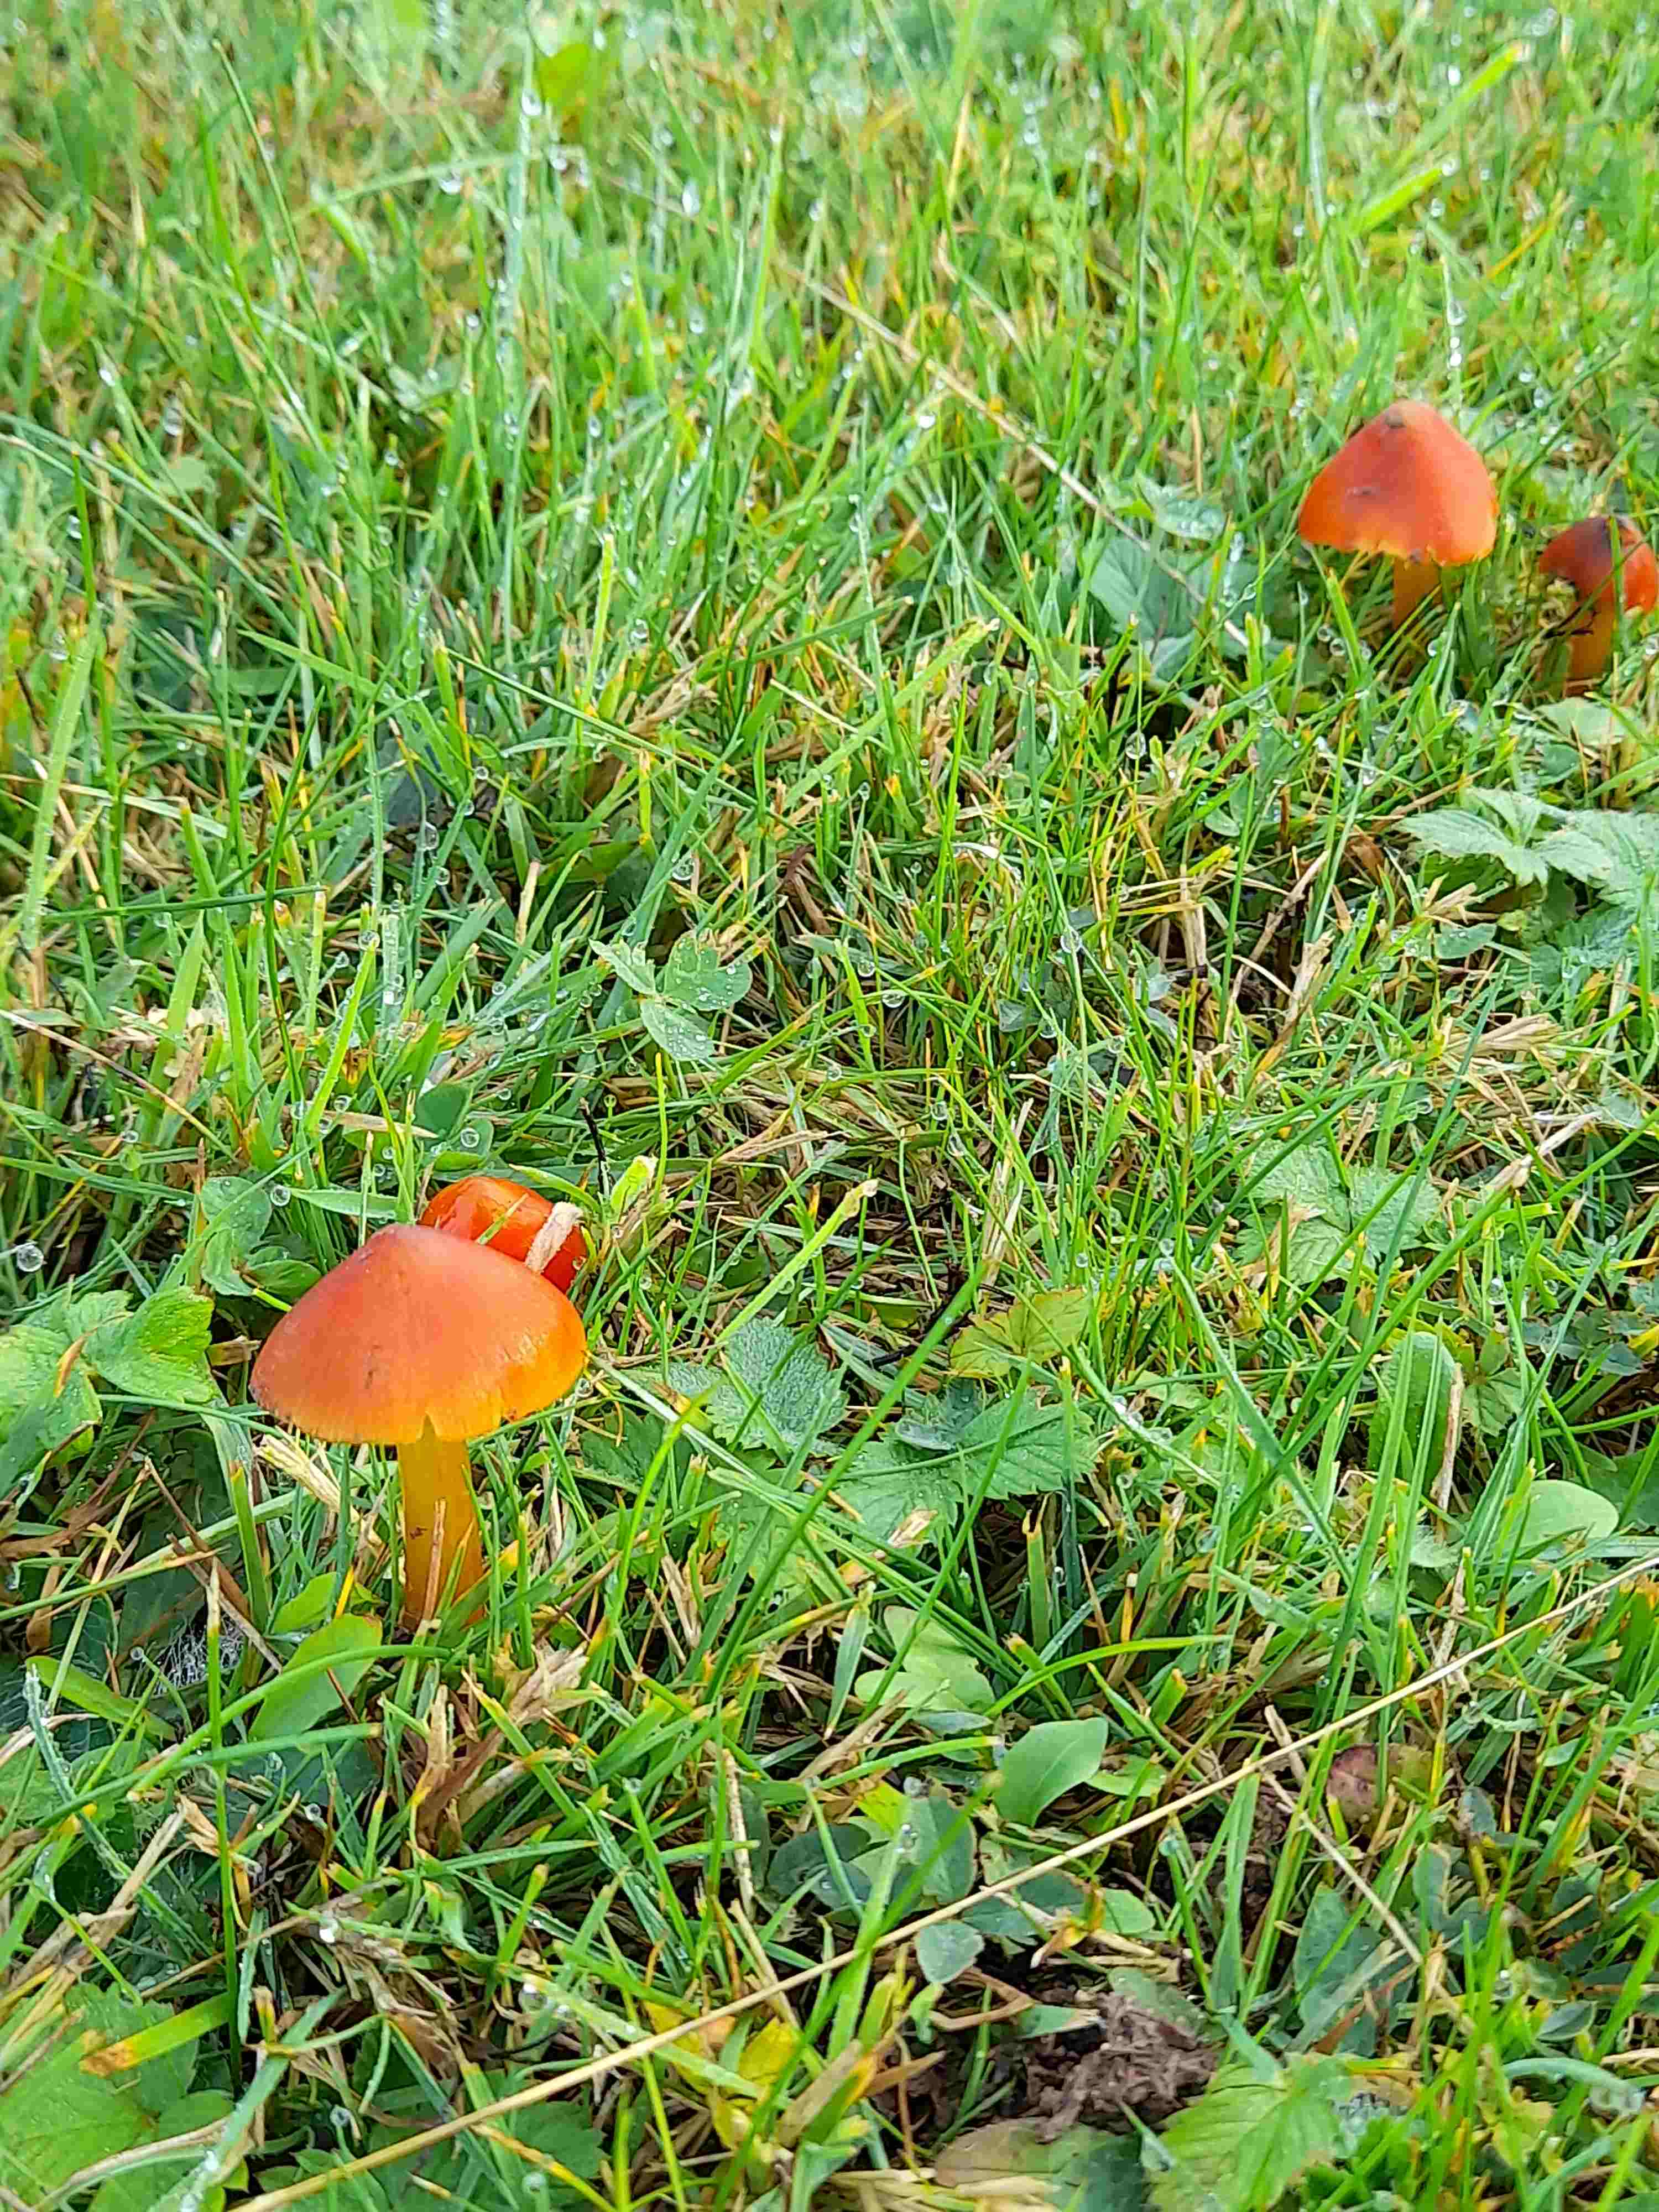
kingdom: Fungi
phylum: Basidiomycota
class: Agaricomycetes
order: Agaricales
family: Hygrophoraceae
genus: Hygrocybe
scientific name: Hygrocybe conica
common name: kegle-vokshat
